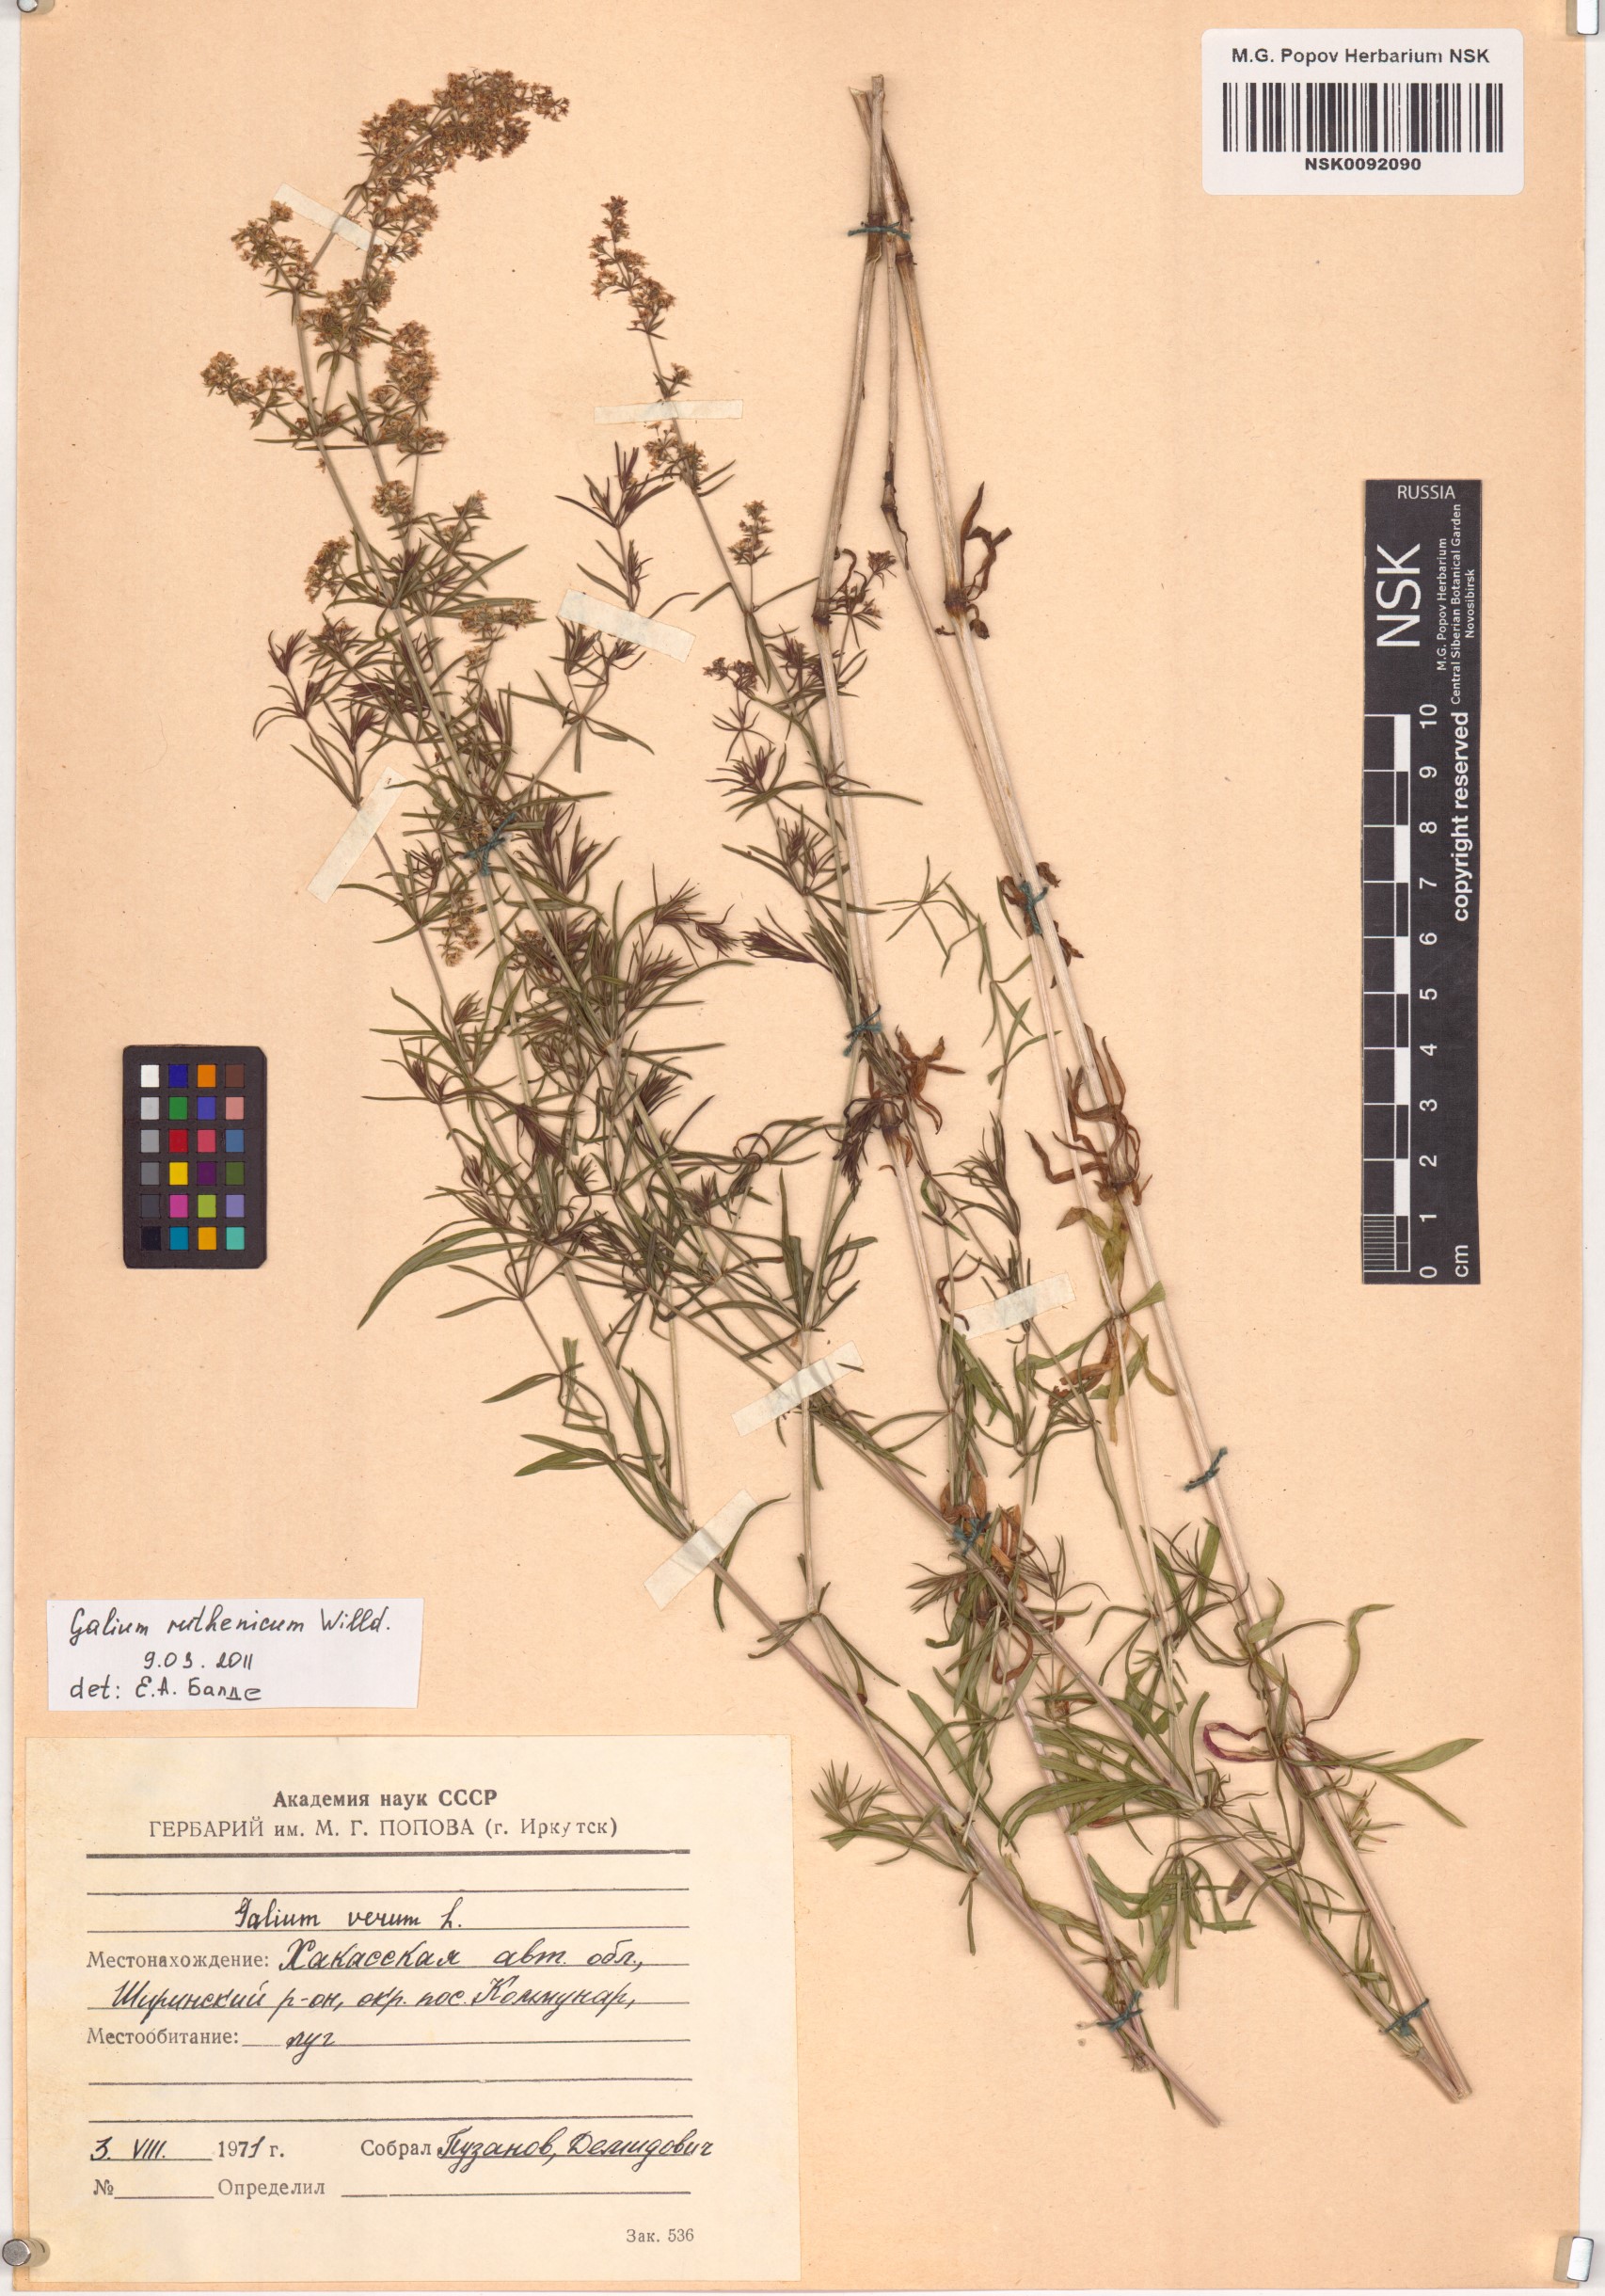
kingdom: Plantae
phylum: Tracheophyta
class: Magnoliopsida
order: Gentianales
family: Rubiaceae
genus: Galium
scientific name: Galium verum
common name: Lady's bedstraw
